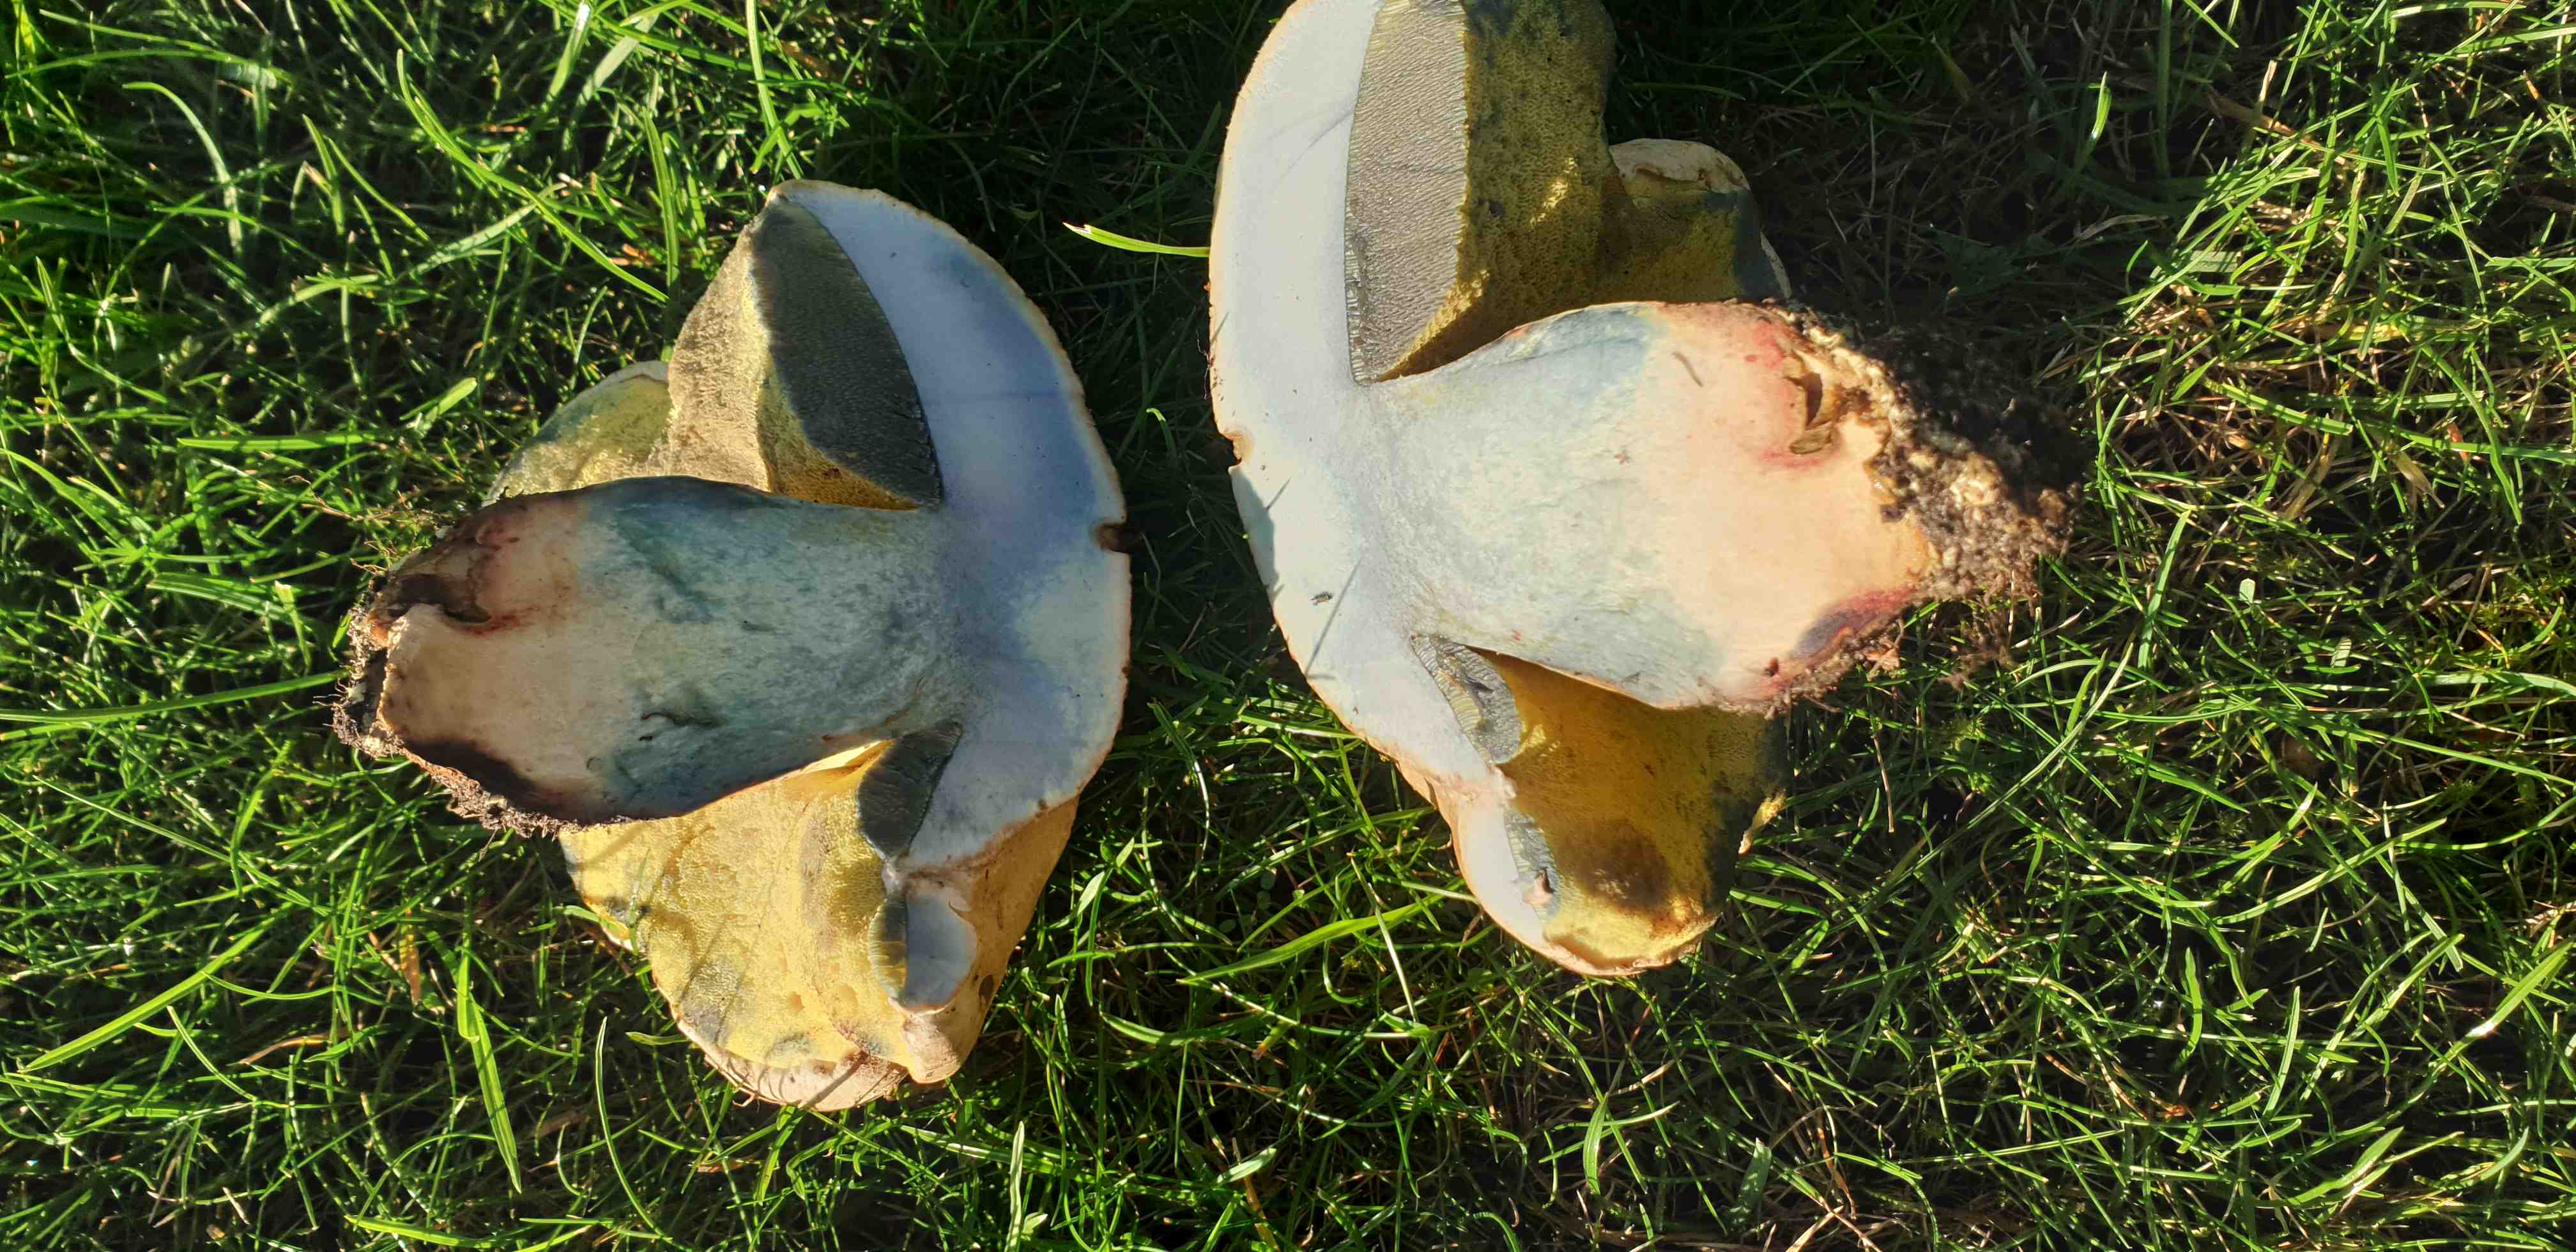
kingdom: Fungi
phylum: Basidiomycota
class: Agaricomycetes
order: Boletales
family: Boletaceae
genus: Caloboletus
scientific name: Caloboletus radicans
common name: rod-rørhat
